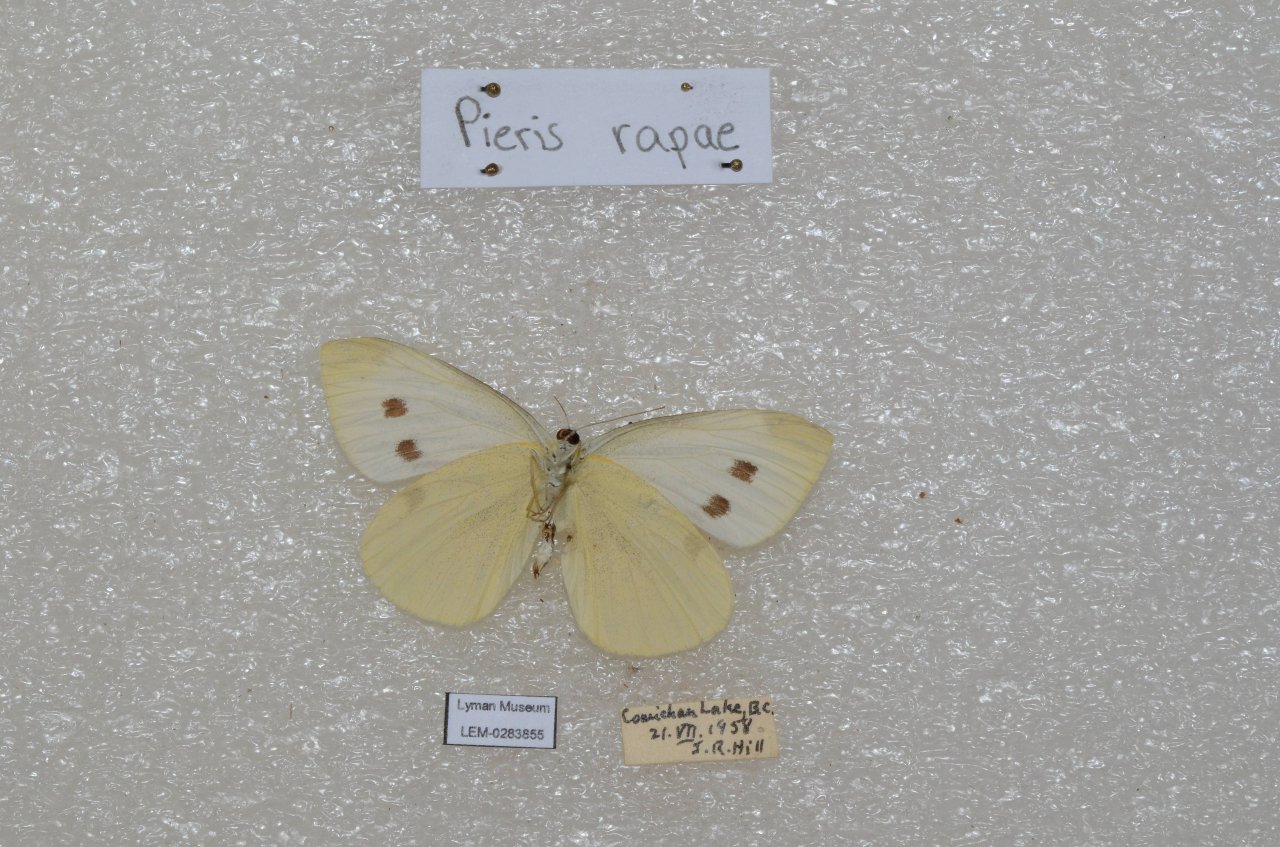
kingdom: Animalia
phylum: Arthropoda
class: Insecta
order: Lepidoptera
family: Pieridae
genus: Pieris
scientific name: Pieris rapae
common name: Cabbage White
